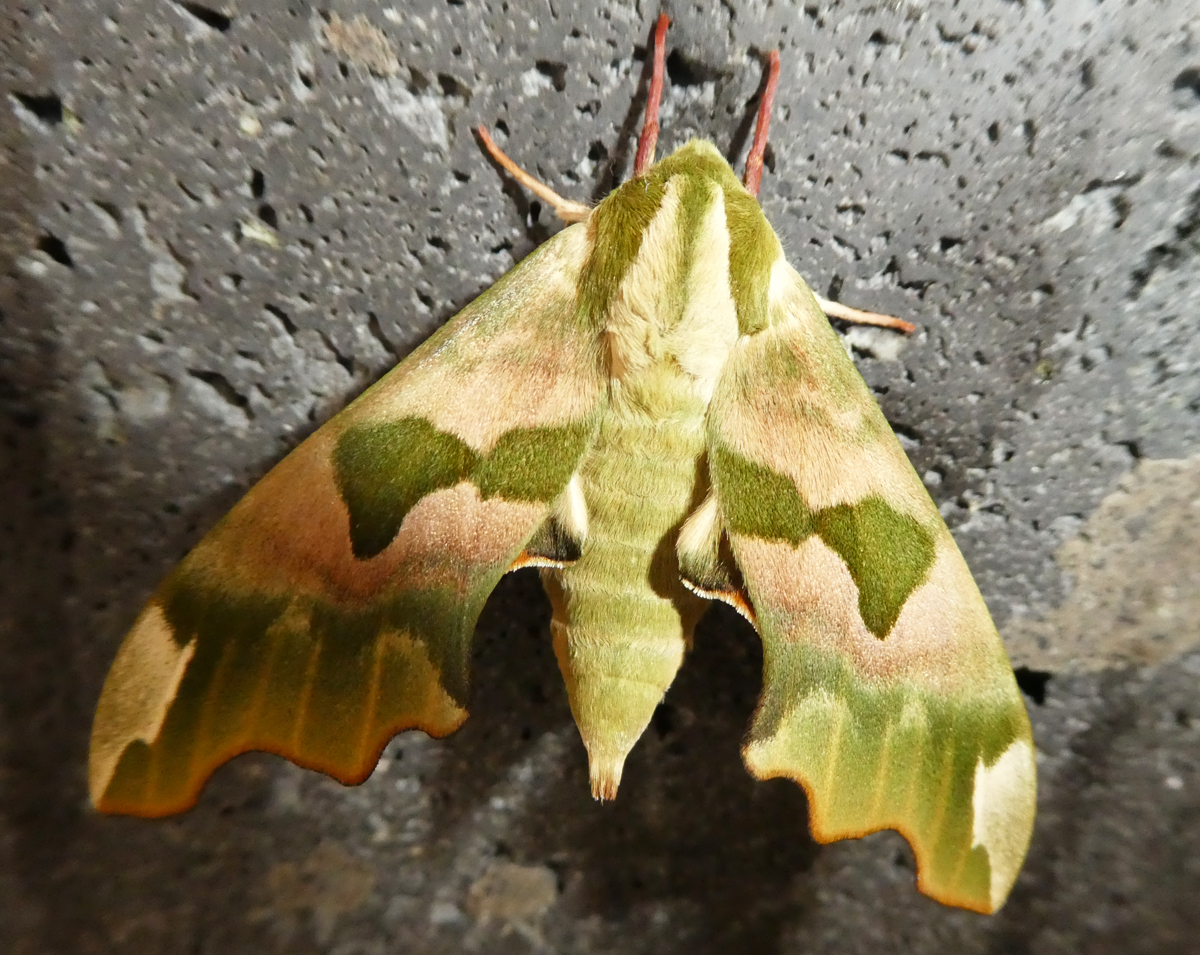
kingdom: Animalia
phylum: Arthropoda
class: Insecta
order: Lepidoptera
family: Sphingidae
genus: Mimas
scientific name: Mimas tiliae
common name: Lime hawk-moth
